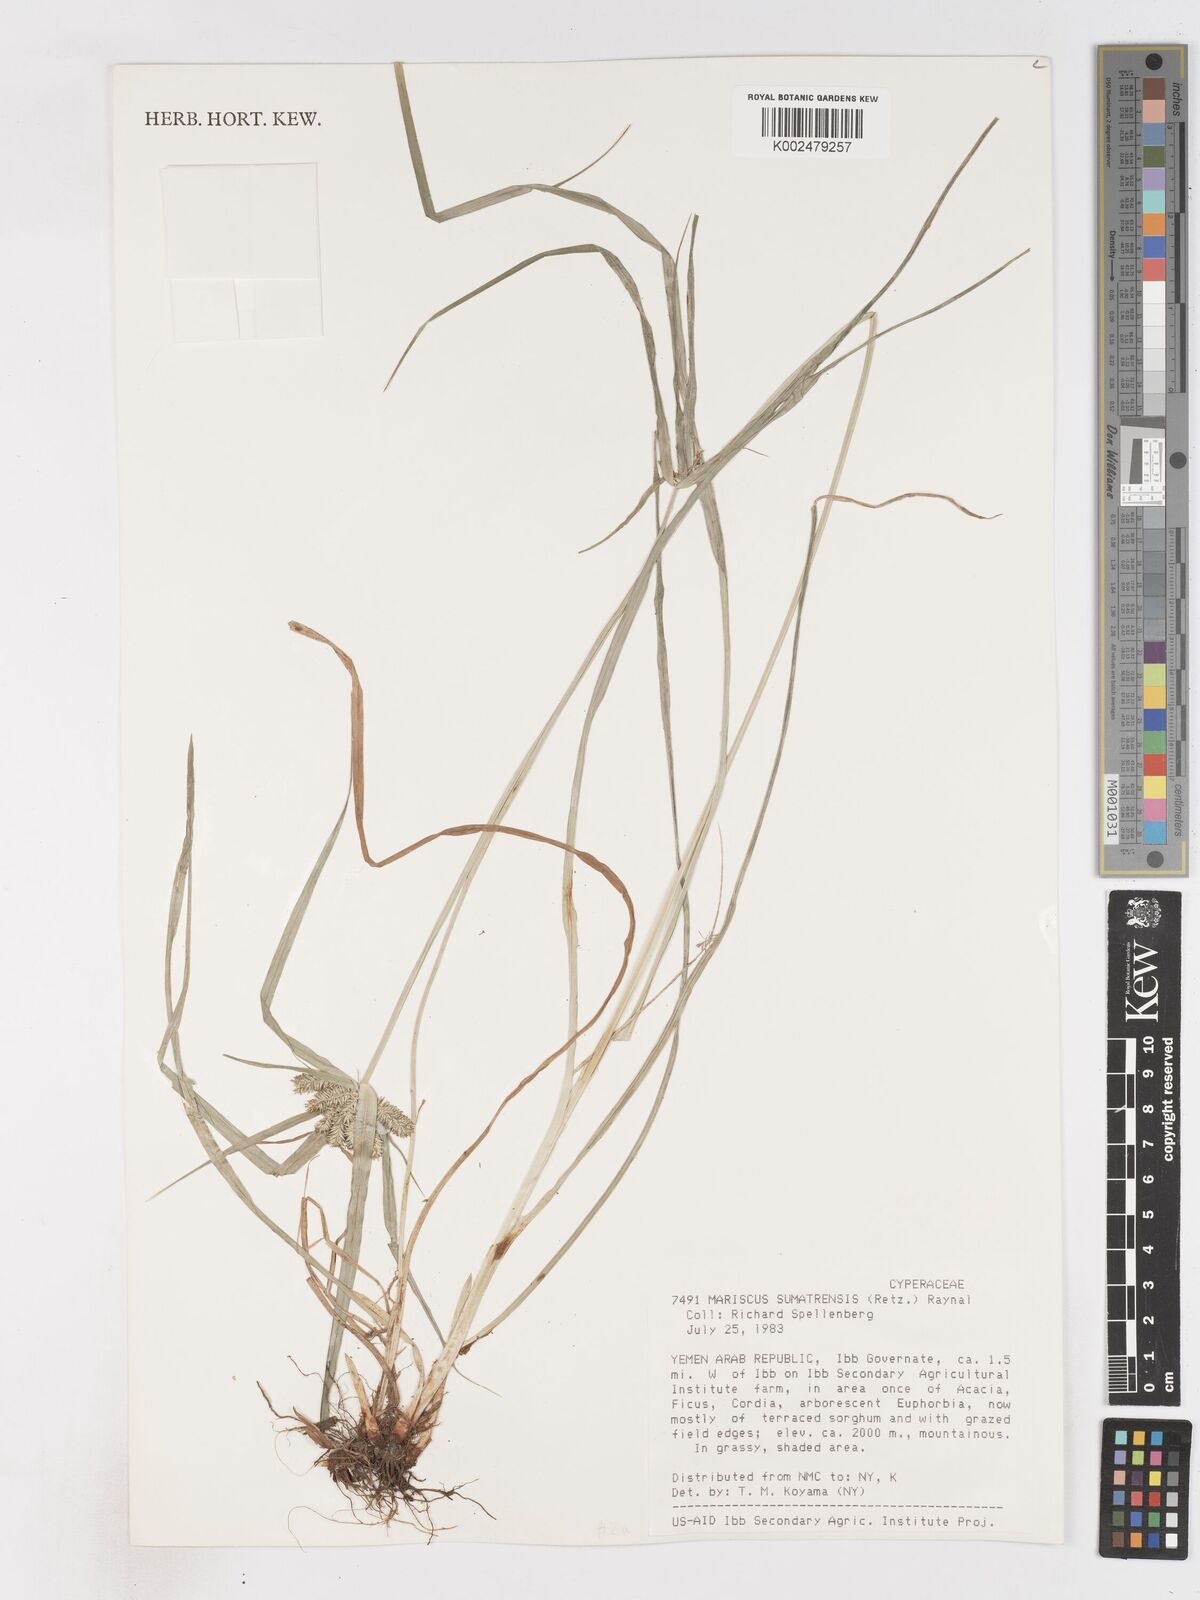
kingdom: Plantae
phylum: Tracheophyta
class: Liliopsida
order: Poales
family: Cyperaceae
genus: Cyperus
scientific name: Cyperus cyperoides
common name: Pacific island flat sedge
